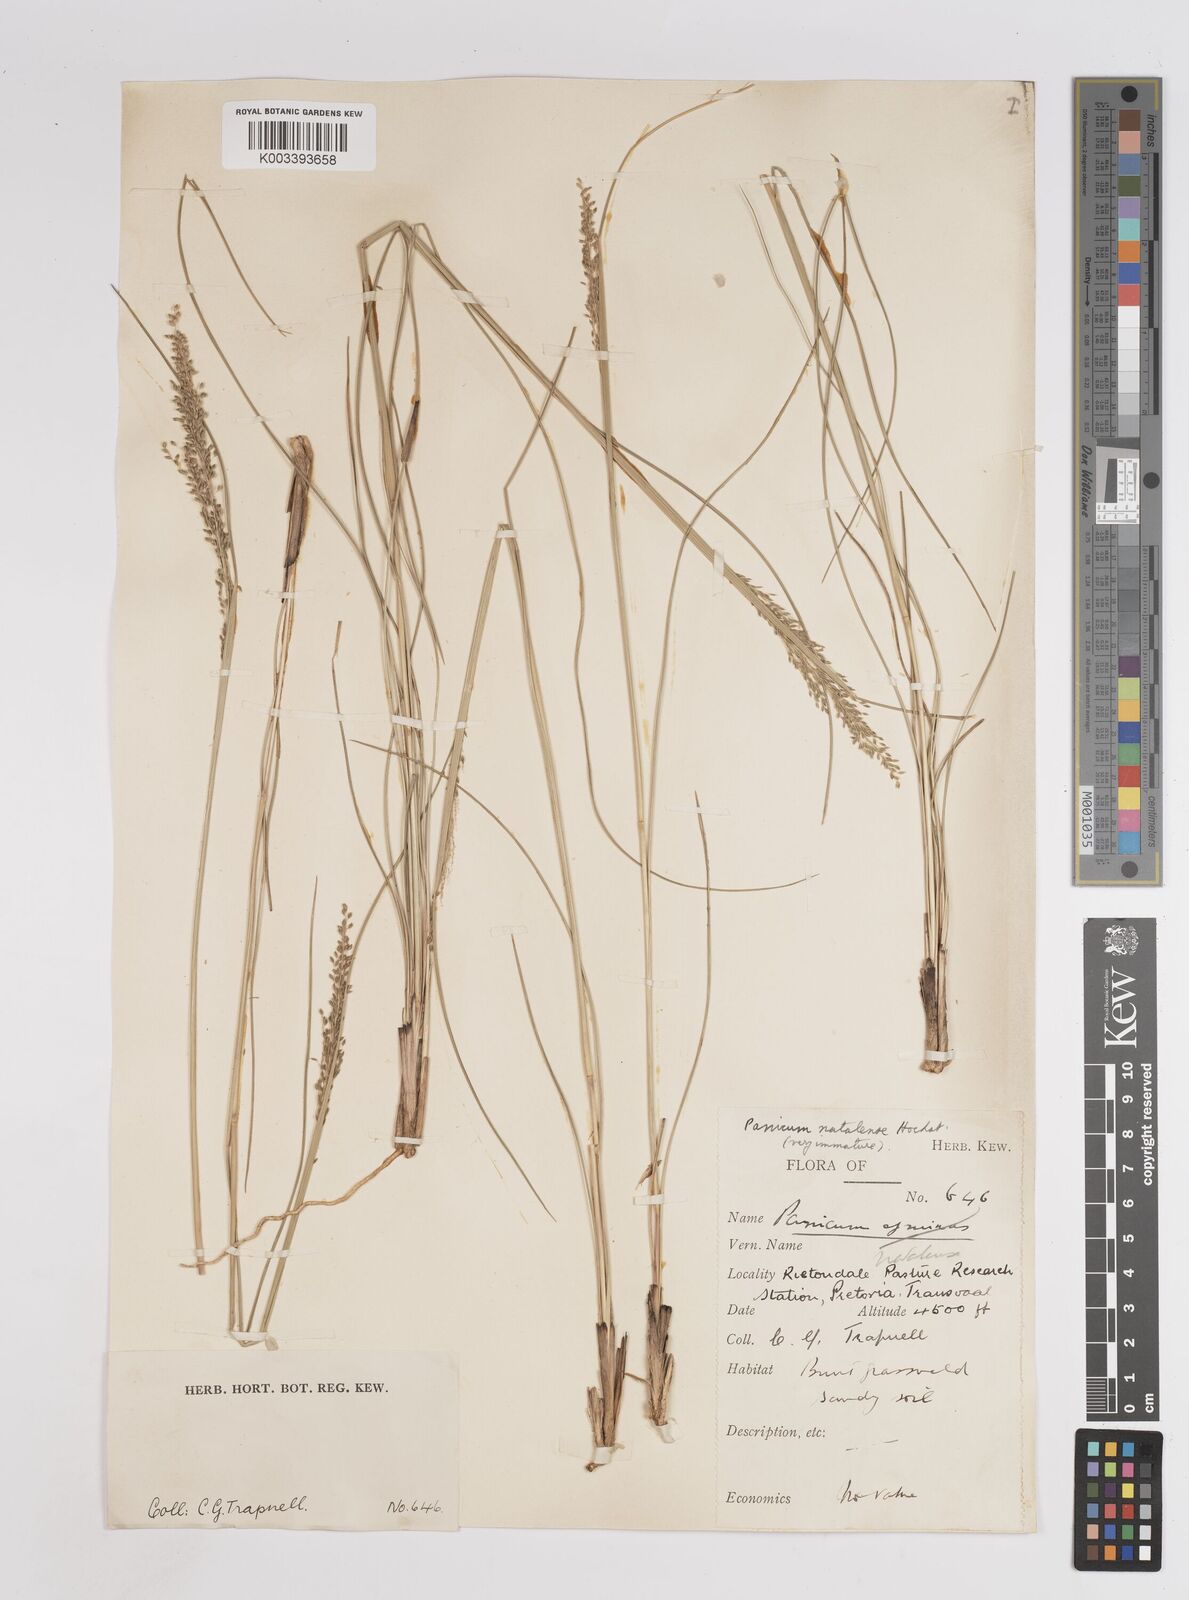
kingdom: Plantae
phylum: Tracheophyta
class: Liliopsida
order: Poales
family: Poaceae
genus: Trichanthecium
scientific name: Trichanthecium natalense
